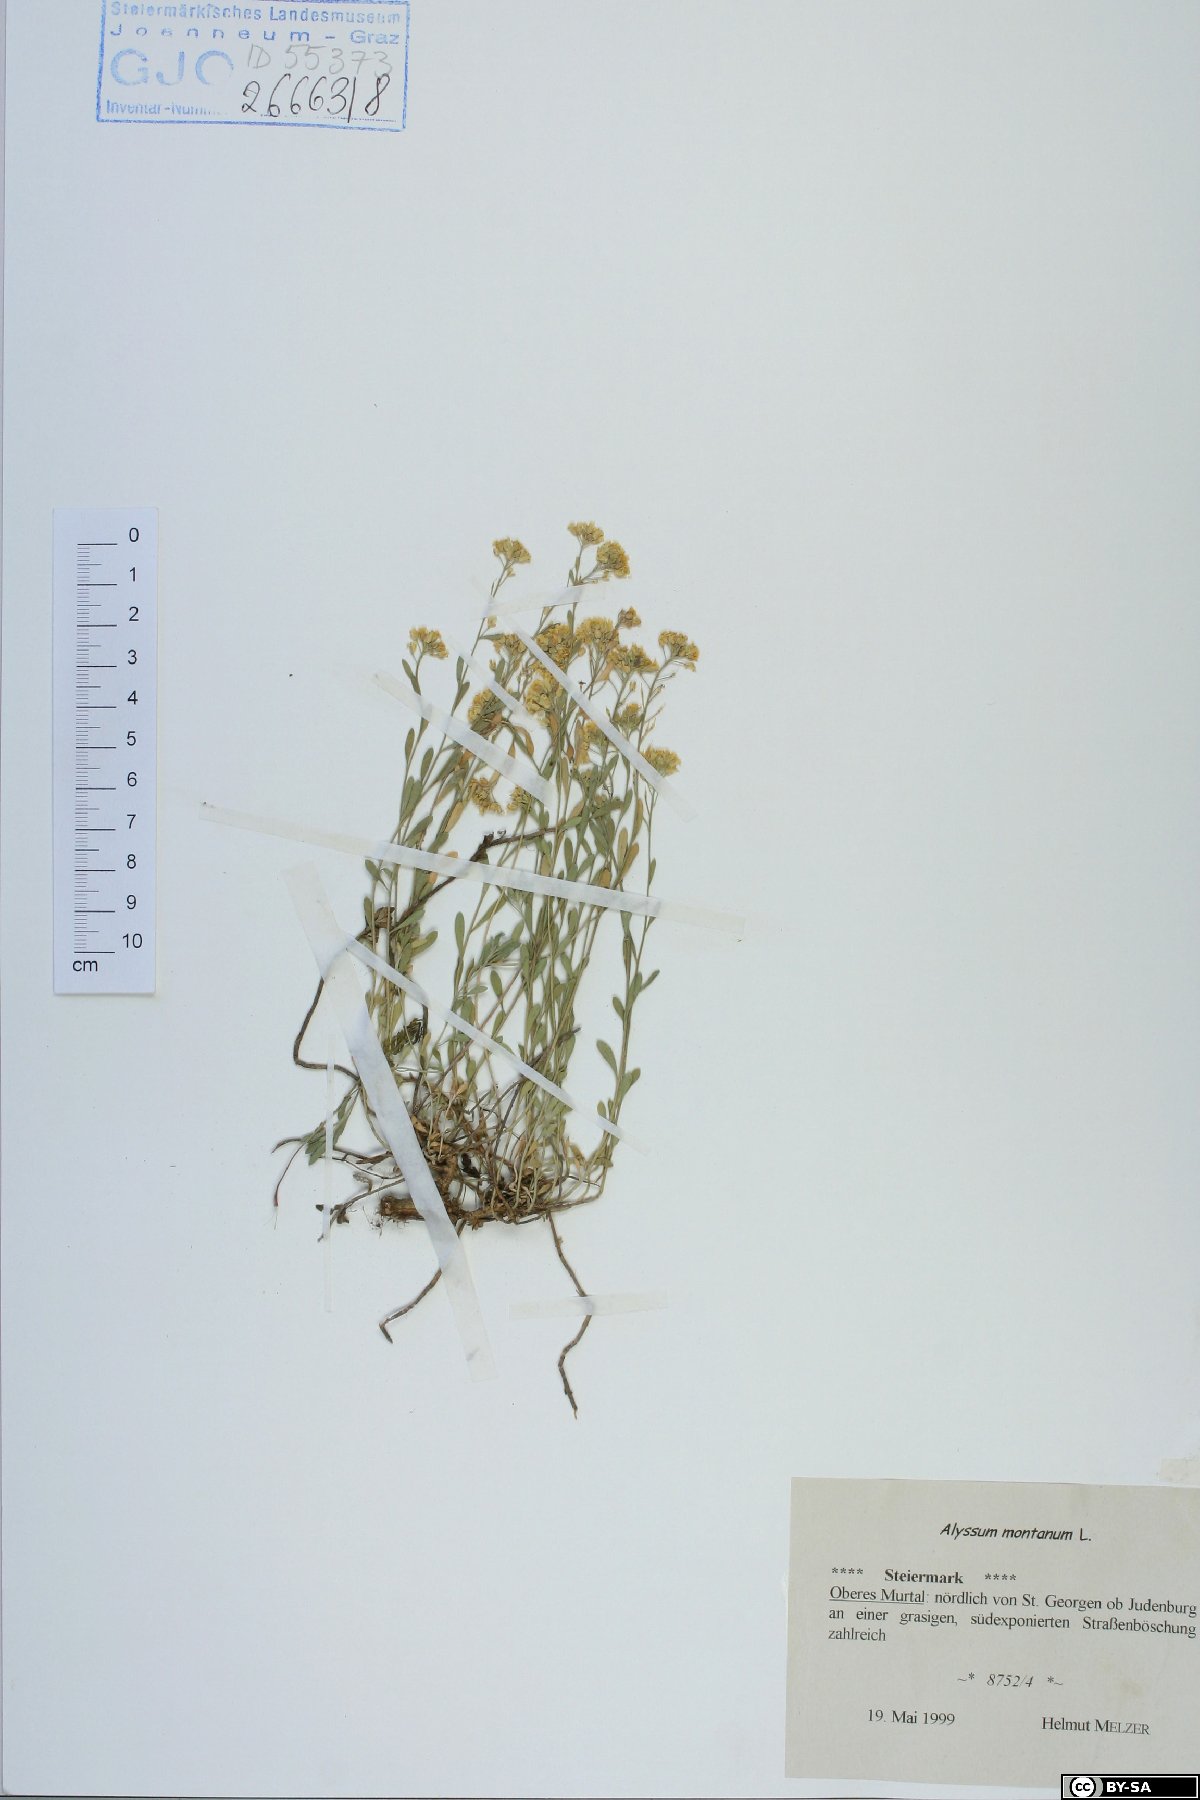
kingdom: Plantae
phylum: Tracheophyta
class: Magnoliopsida
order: Brassicales
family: Brassicaceae
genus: Alyssum
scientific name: Alyssum montanum
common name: Mountain alison
